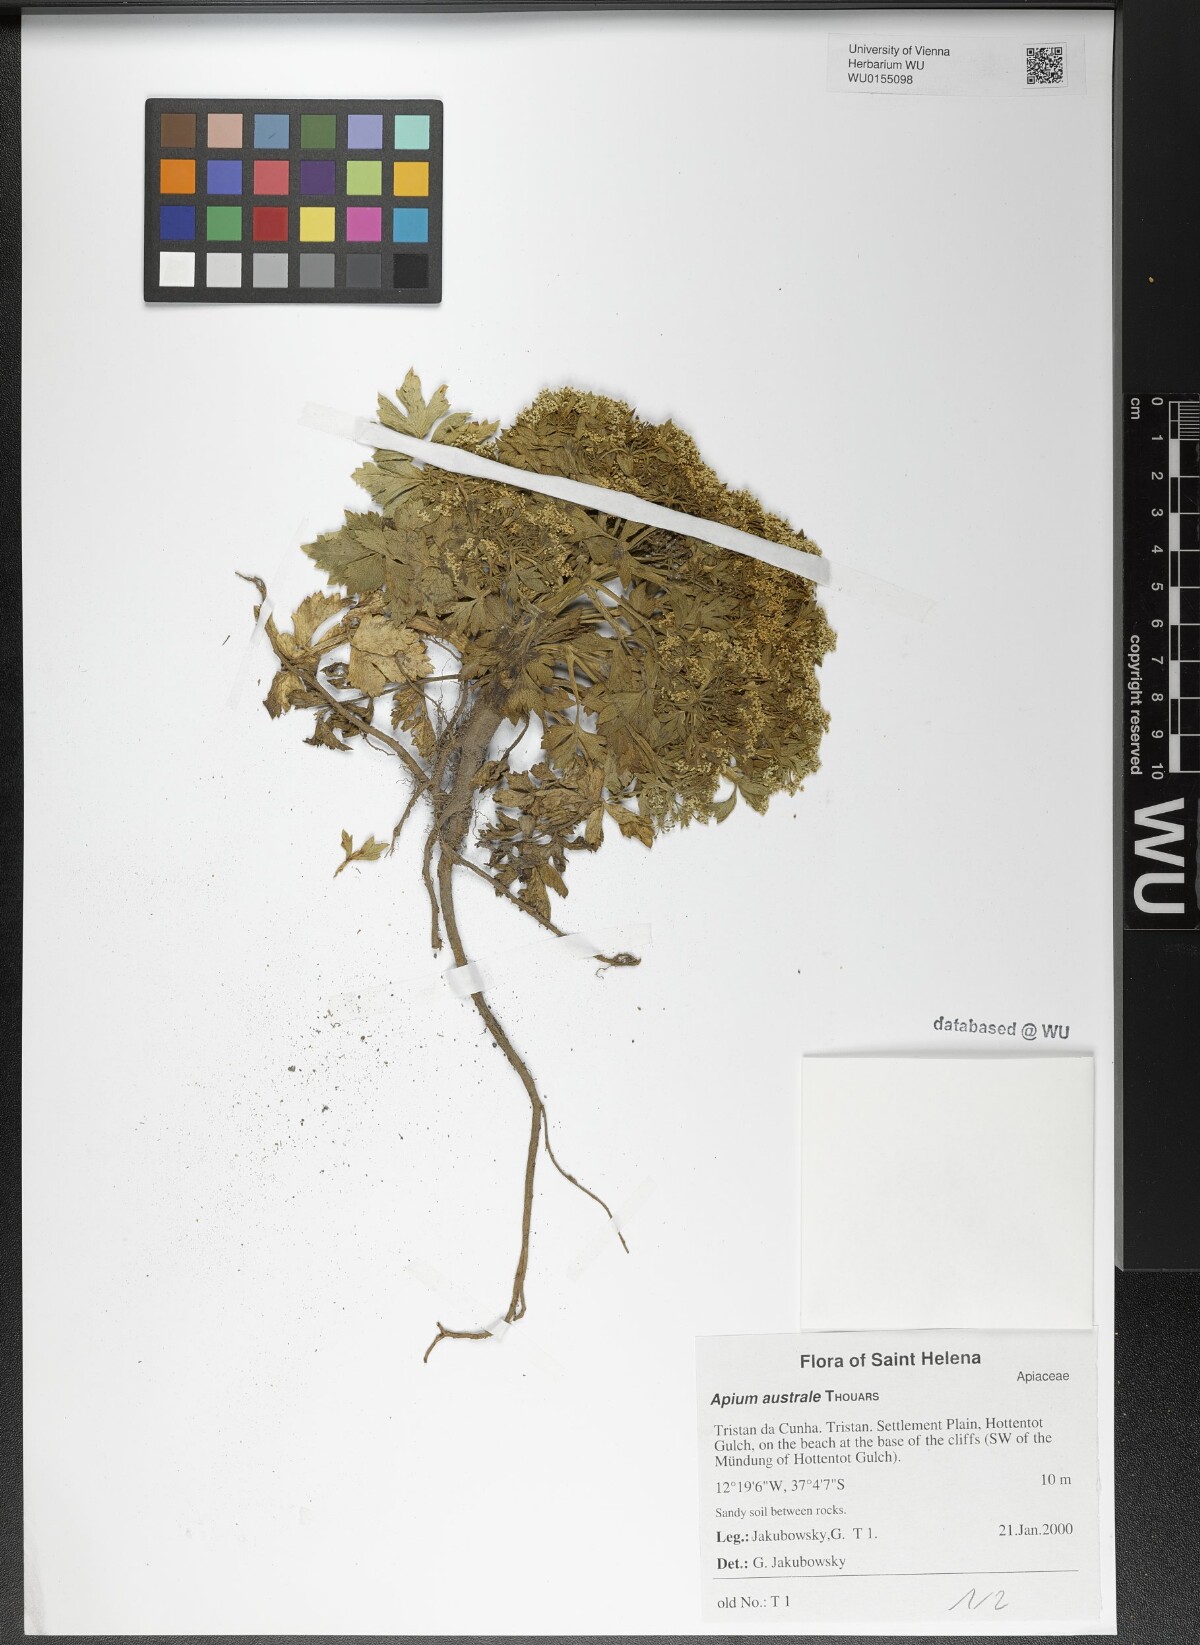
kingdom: Plantae
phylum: Tracheophyta
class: Magnoliopsida
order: Apiales
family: Apiaceae
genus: Apium
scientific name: Apium prostratum
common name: Prostrate marshwort
